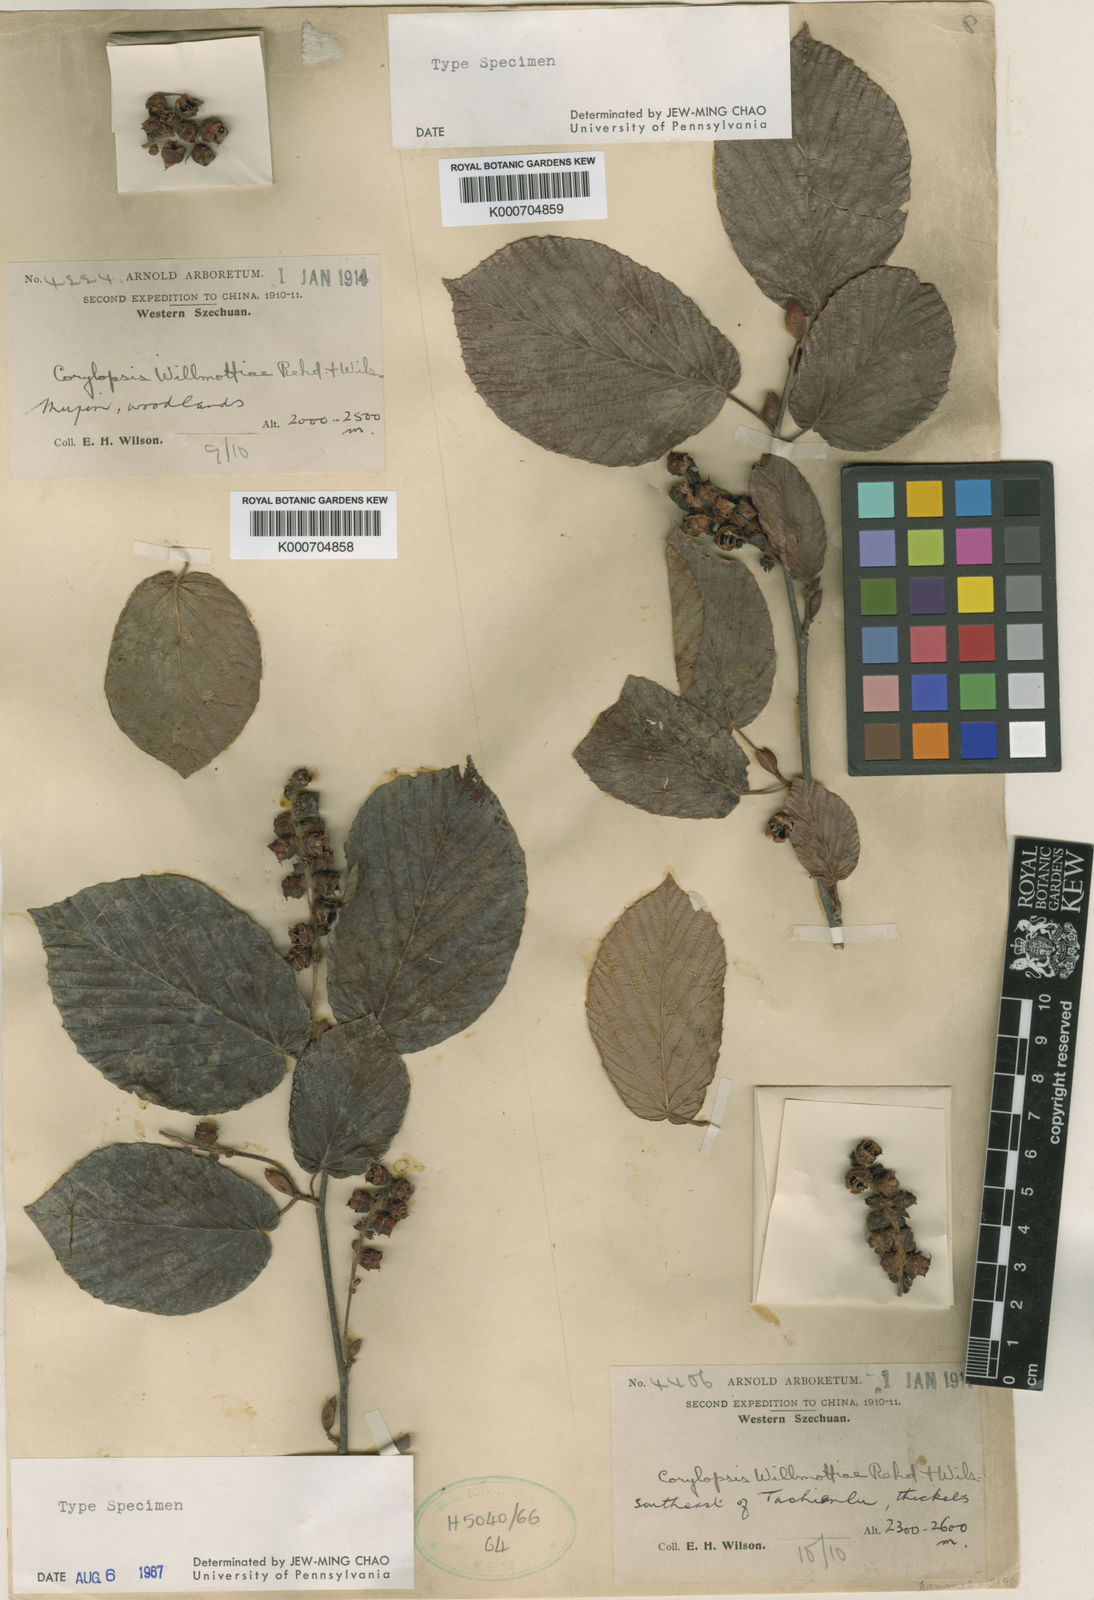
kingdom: Plantae
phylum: Tracheophyta
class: Magnoliopsida
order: Saxifragales
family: Hamamelidaceae
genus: Corylopsis
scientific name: Corylopsis sinensis
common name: Winter hazel
